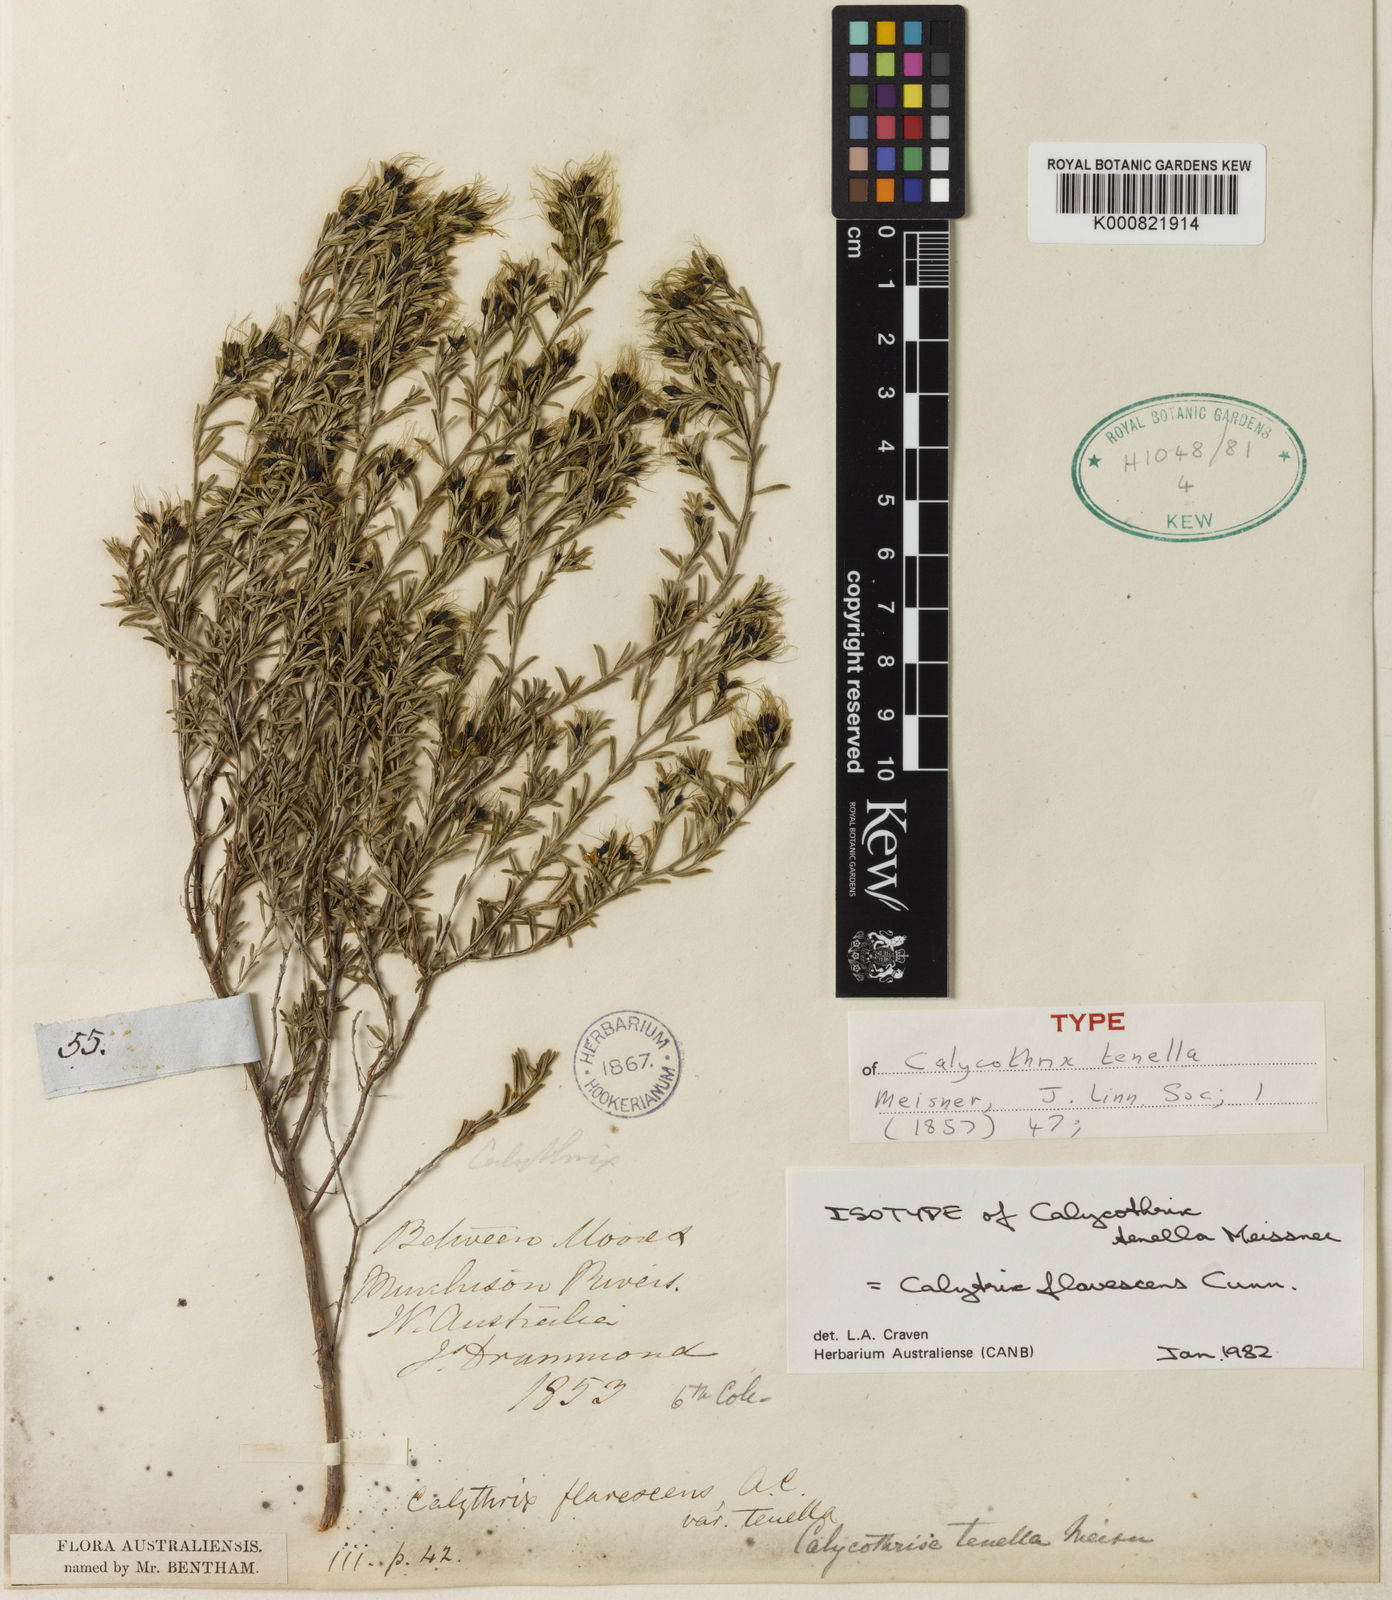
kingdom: Plantae
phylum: Tracheophyta
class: Magnoliopsida
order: Myrtales
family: Myrtaceae
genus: Calytrix
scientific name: Calytrix flavescens
